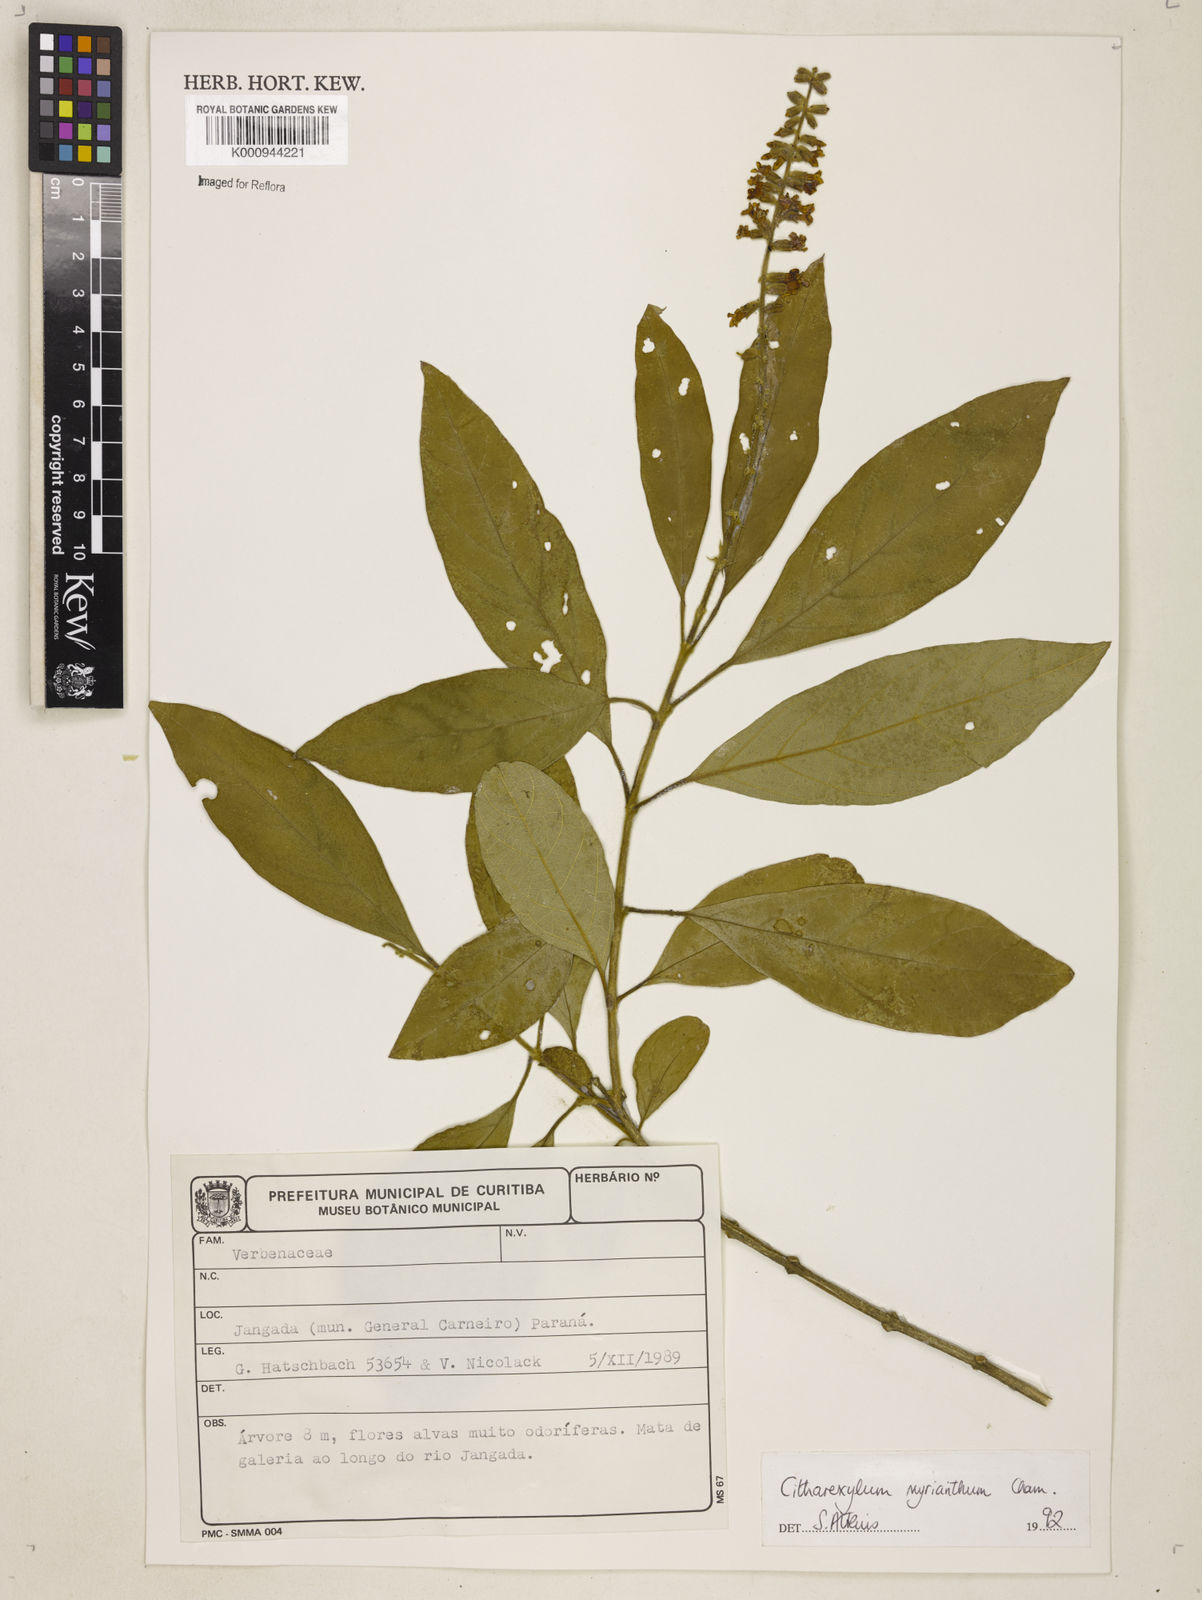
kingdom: Plantae
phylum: Tracheophyta
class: Magnoliopsida
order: Lamiales
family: Verbenaceae
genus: Citharexylum
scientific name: Citharexylum myrianthum
